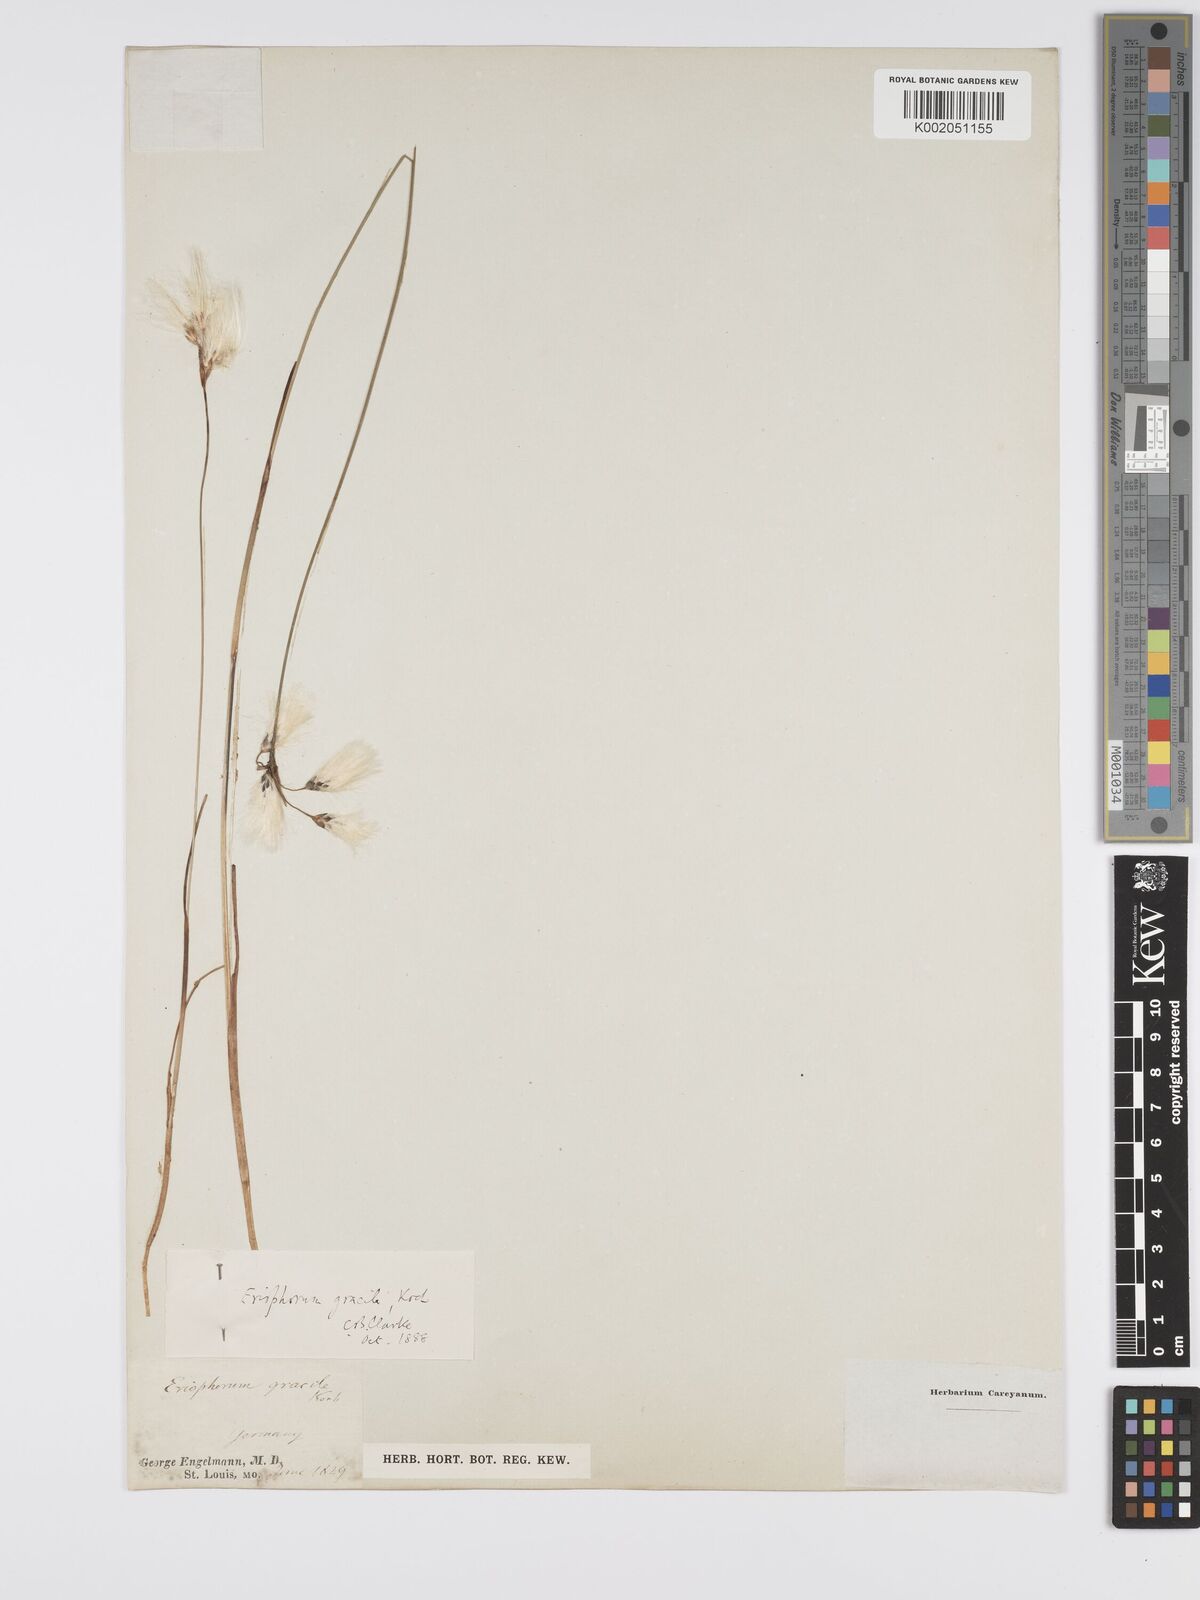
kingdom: Plantae
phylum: Tracheophyta
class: Liliopsida
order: Poales
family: Cyperaceae
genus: Eriophorum
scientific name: Eriophorum gracile
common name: Slender cottongrass
